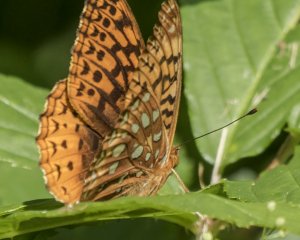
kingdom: Animalia
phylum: Arthropoda
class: Insecta
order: Lepidoptera
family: Nymphalidae
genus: Speyeria
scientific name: Speyeria cybele
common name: Great Spangled Fritillary
